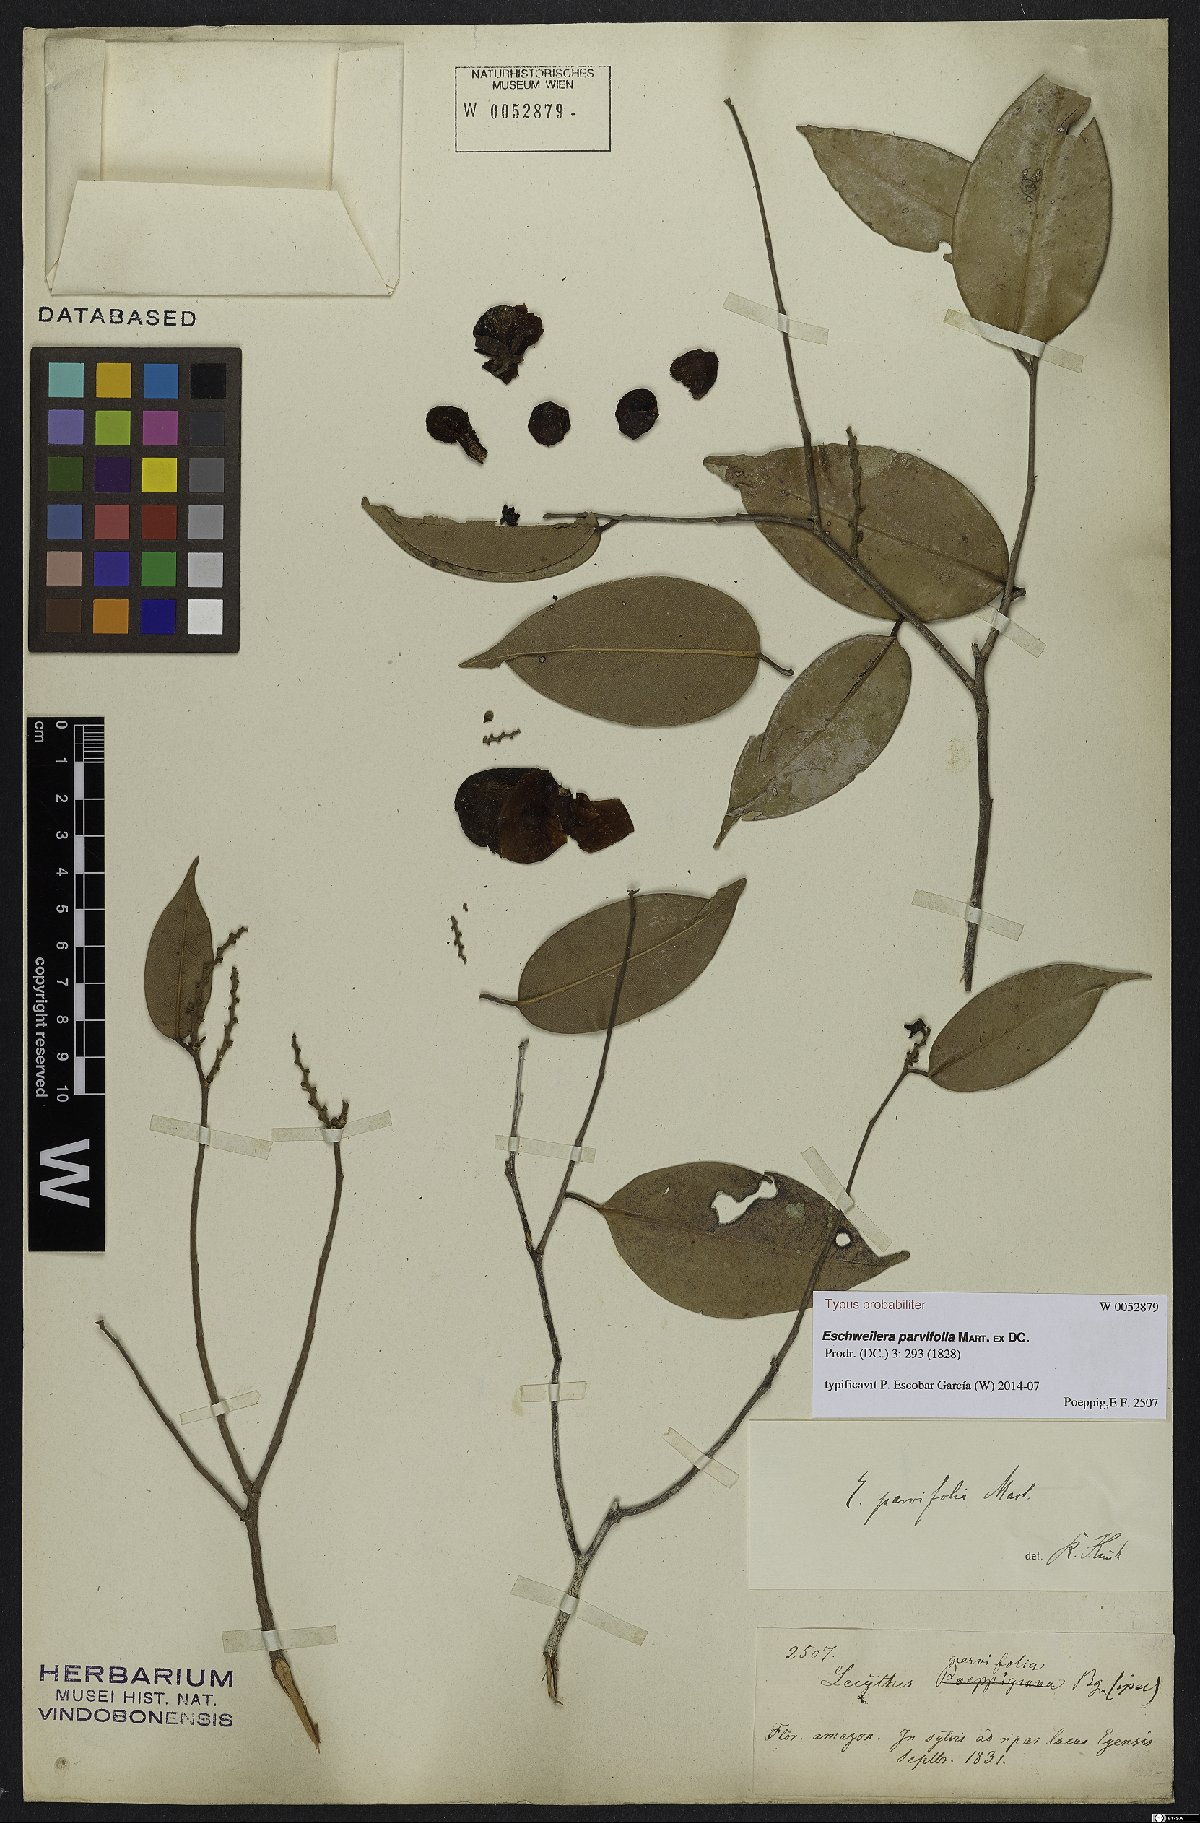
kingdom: Plantae
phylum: Tracheophyta
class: Magnoliopsida
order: Ericales
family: Lecythidaceae
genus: Eschweilera
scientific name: Eschweilera parvifolia
